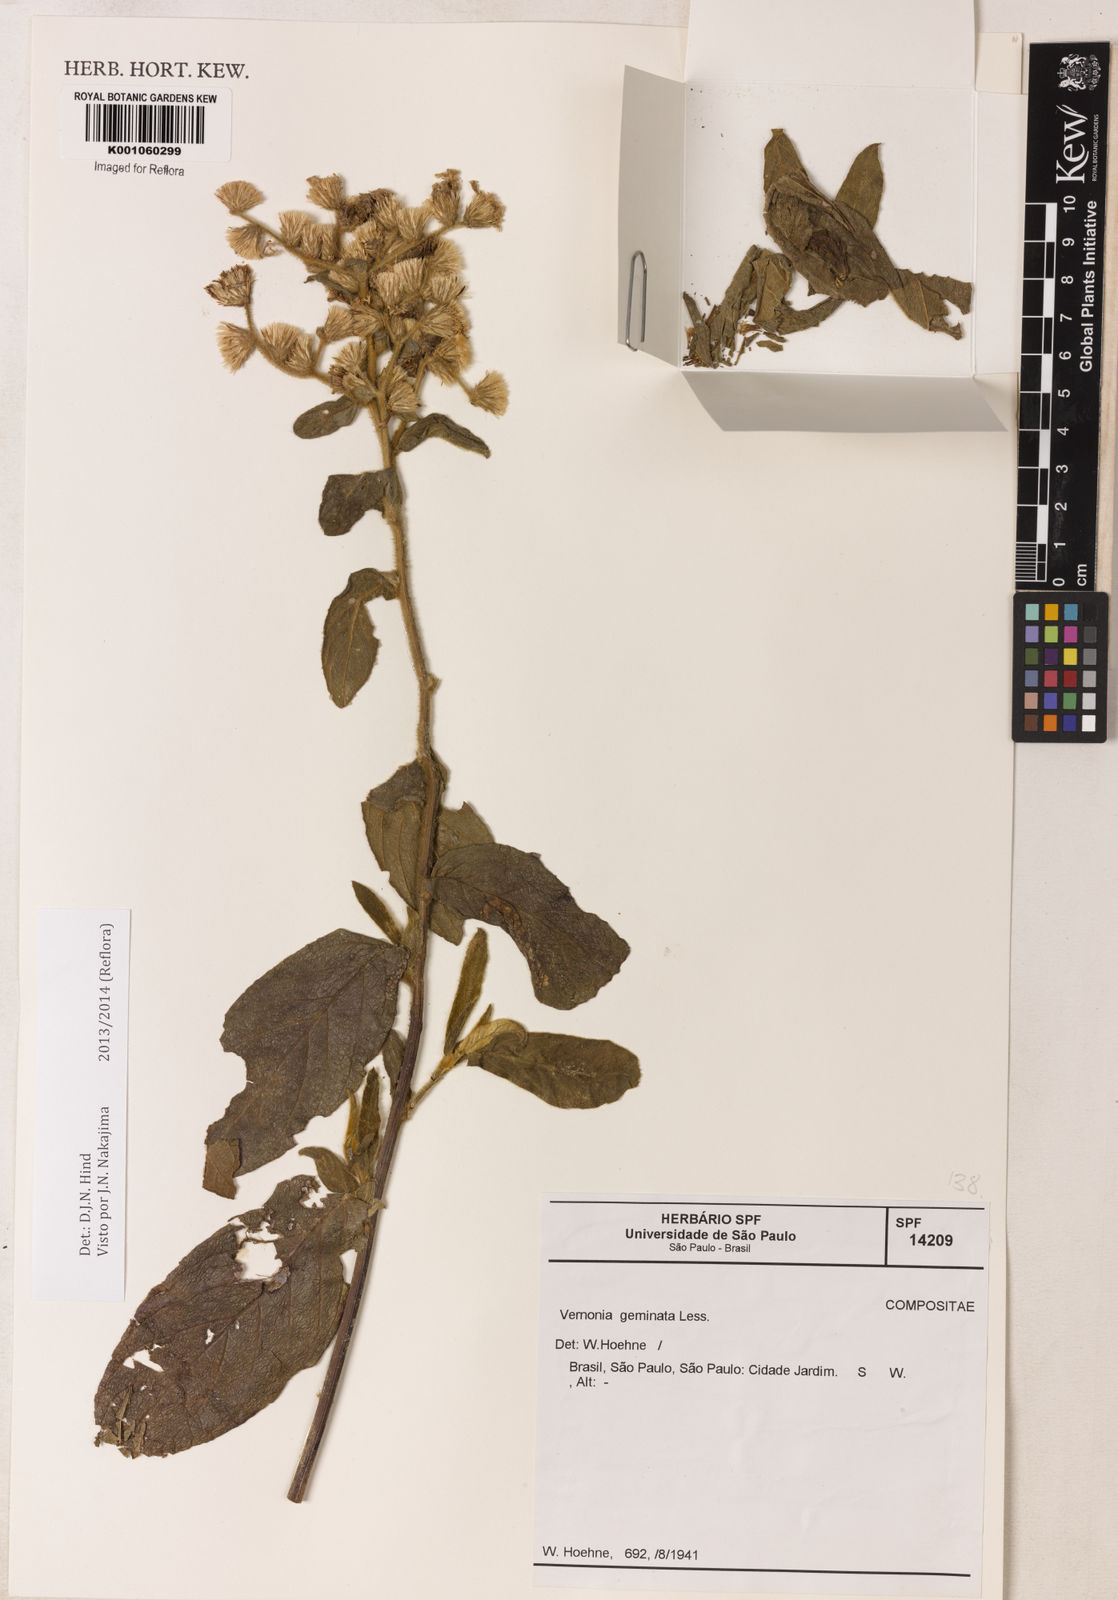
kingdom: Plantae
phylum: Tracheophyta
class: Magnoliopsida
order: Asterales
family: Asteraceae
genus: Lepidaploa
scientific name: Lepidaploa canescens
